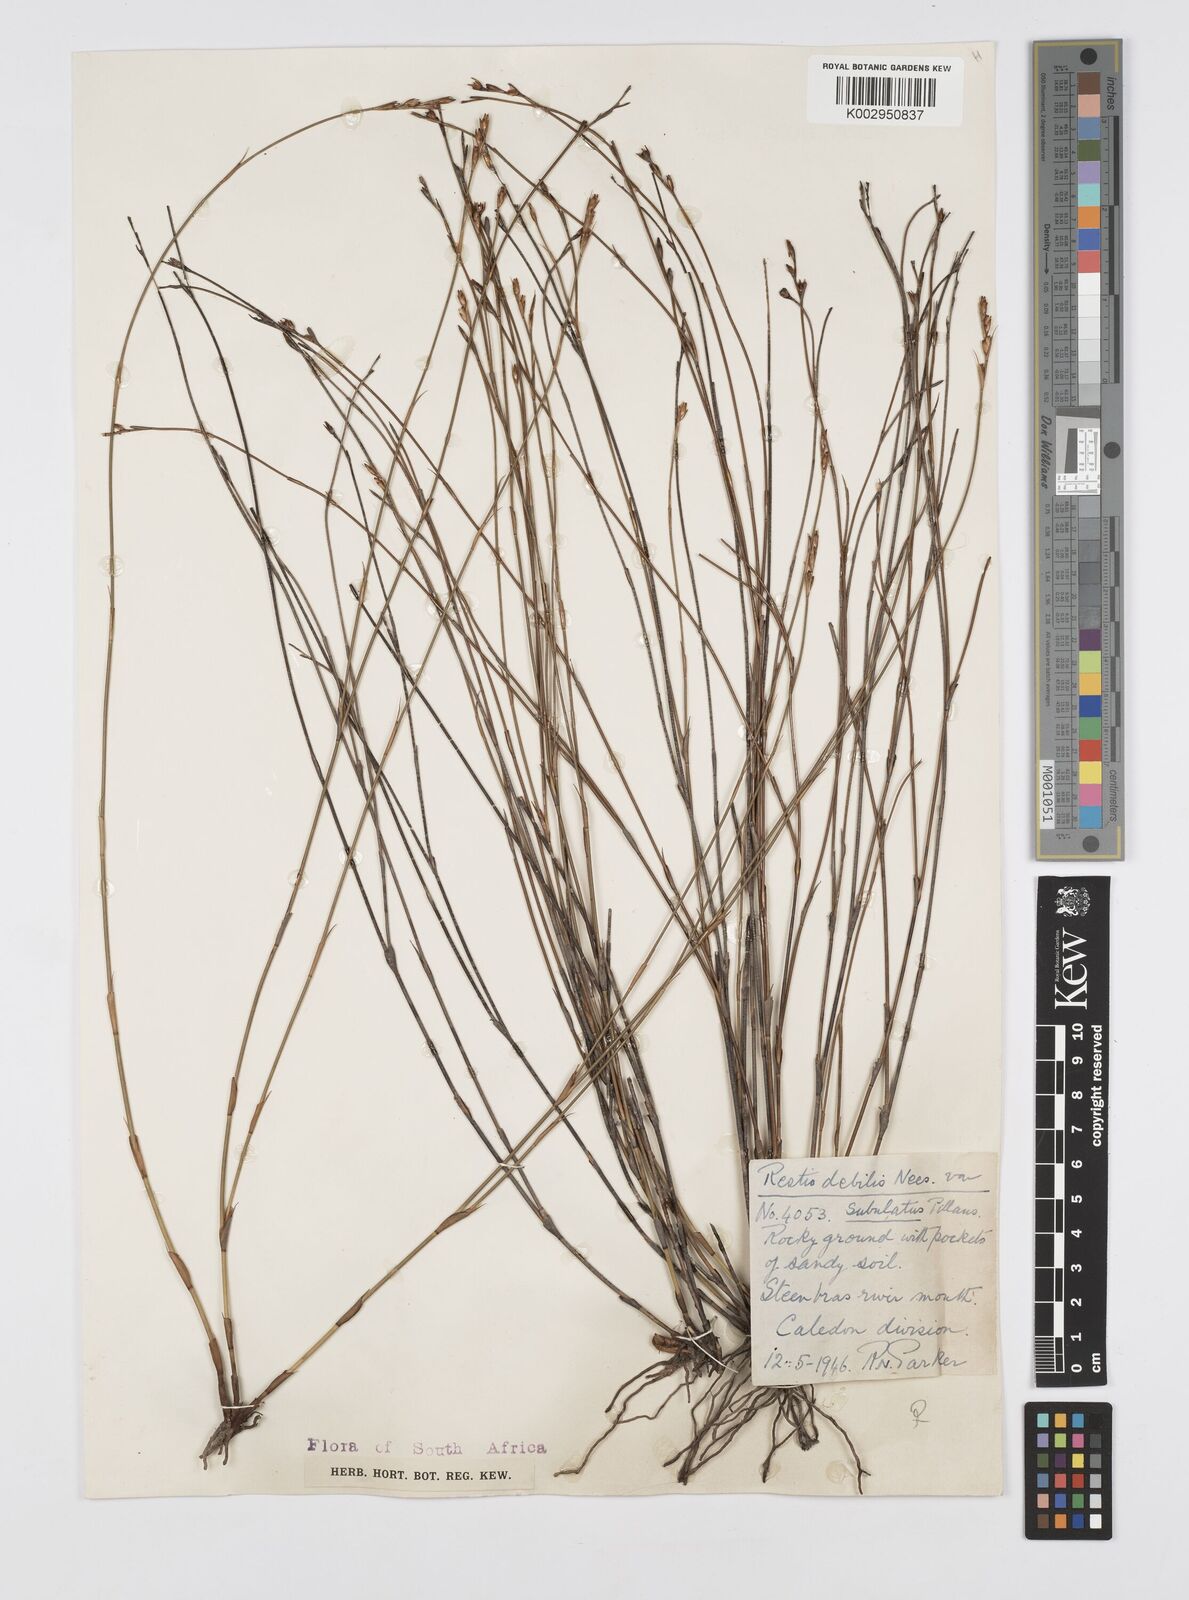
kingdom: Plantae
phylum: Tracheophyta
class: Liliopsida
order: Poales
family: Restionaceae
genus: Restio
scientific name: Restio debilis
